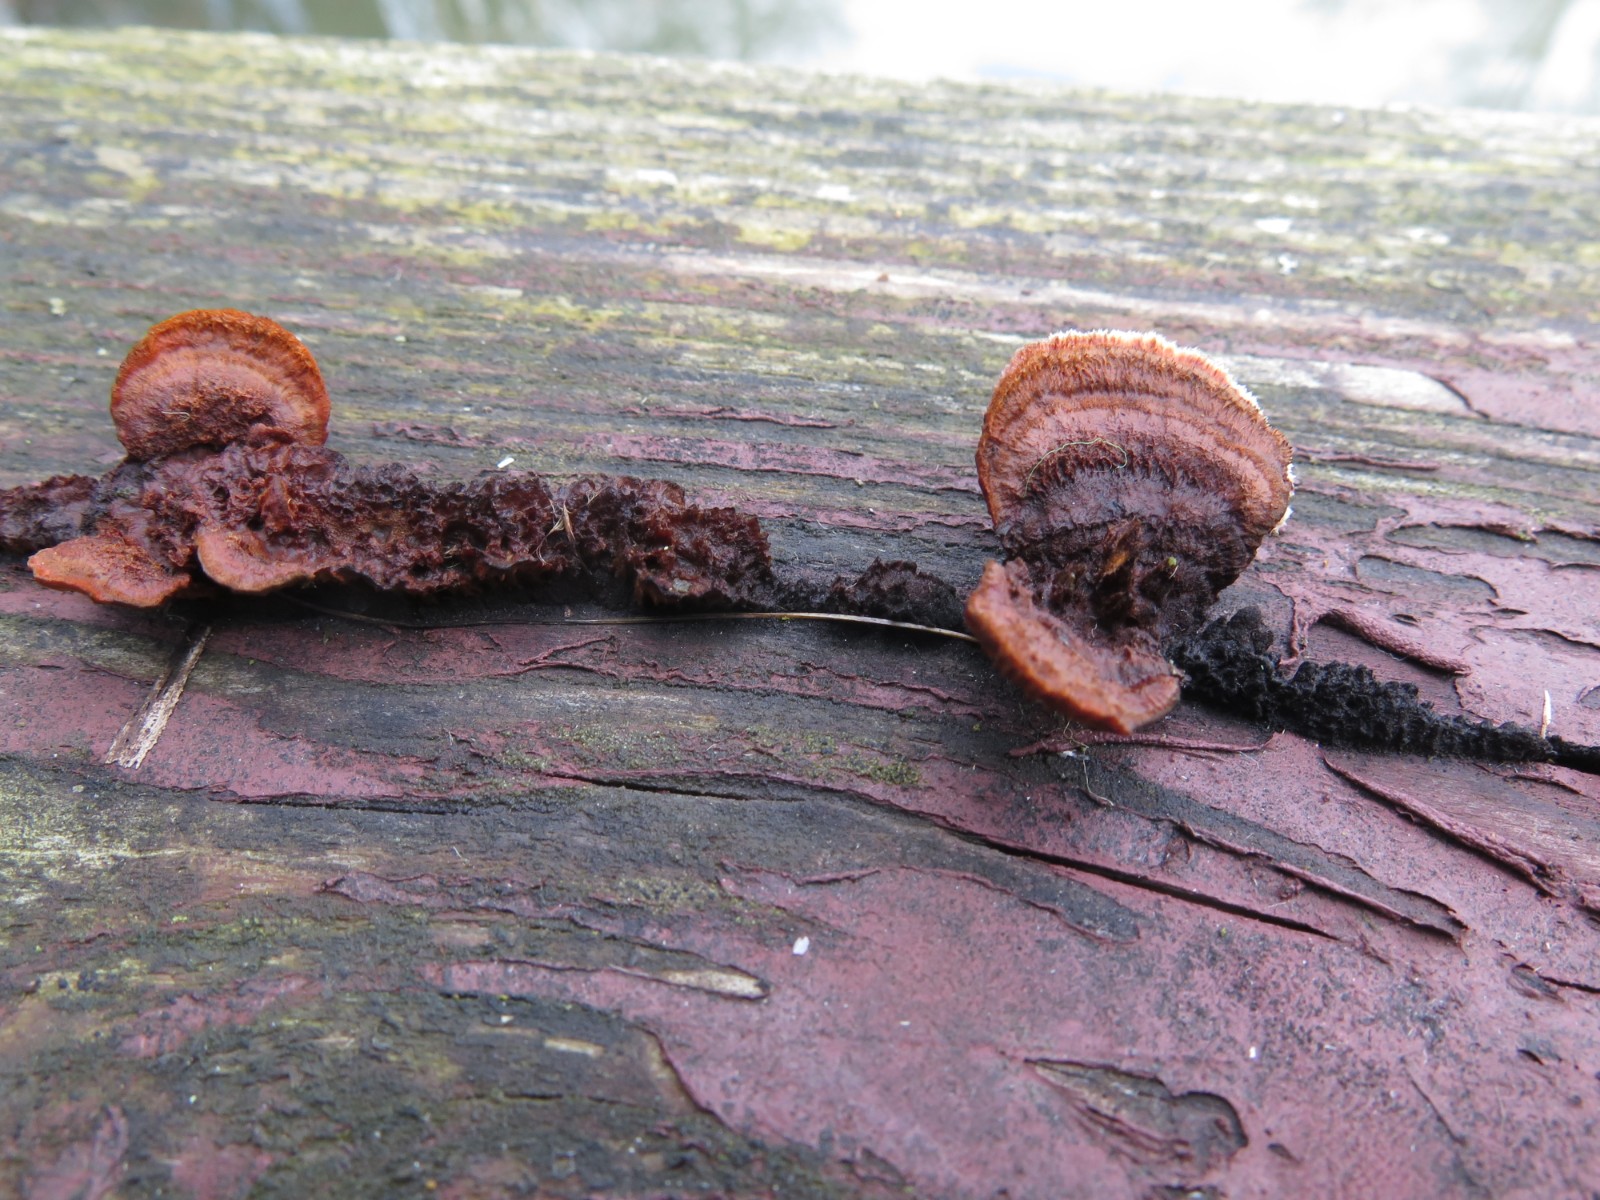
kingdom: Fungi
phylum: Basidiomycota
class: Agaricomycetes
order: Gloeophyllales
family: Gloeophyllaceae
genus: Gloeophyllum
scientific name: Gloeophyllum sepiarium
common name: fyrre-korkhat
